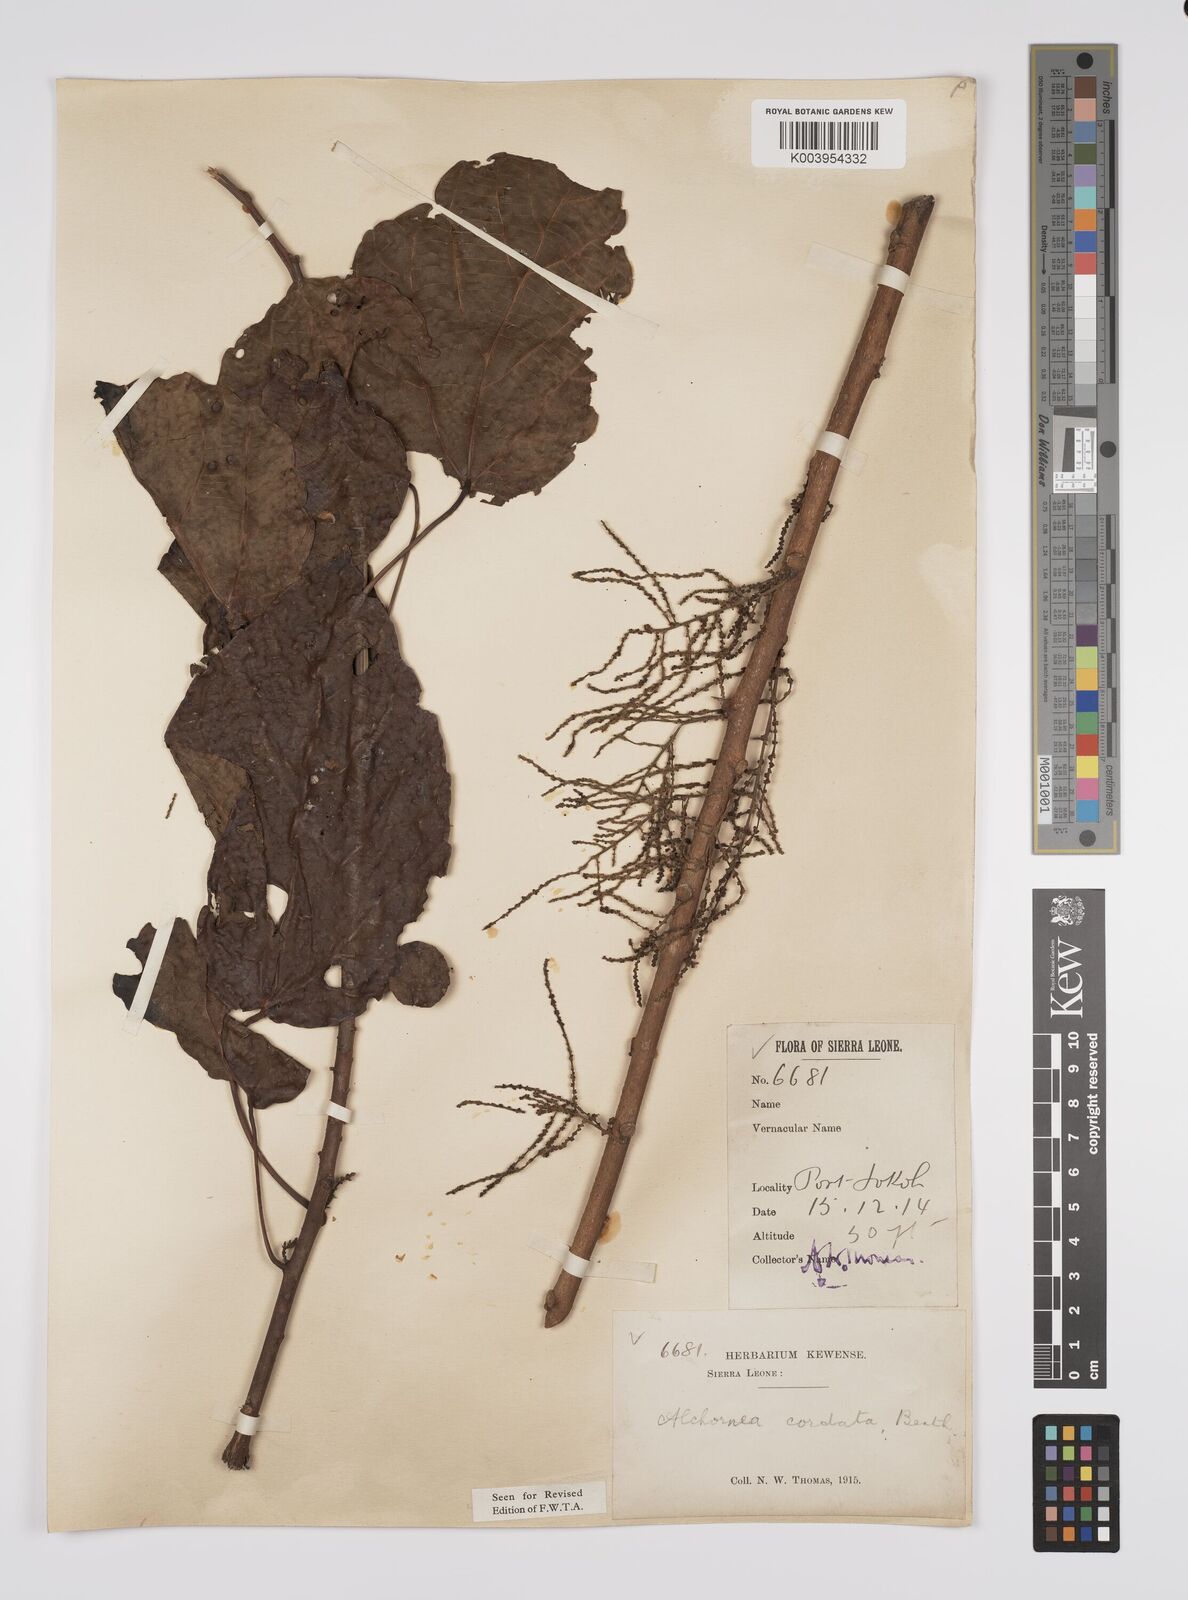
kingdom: Plantae
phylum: Tracheophyta
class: Magnoliopsida
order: Malpighiales
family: Euphorbiaceae
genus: Alchornea
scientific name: Alchornea cordifolia
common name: Christmasbush
